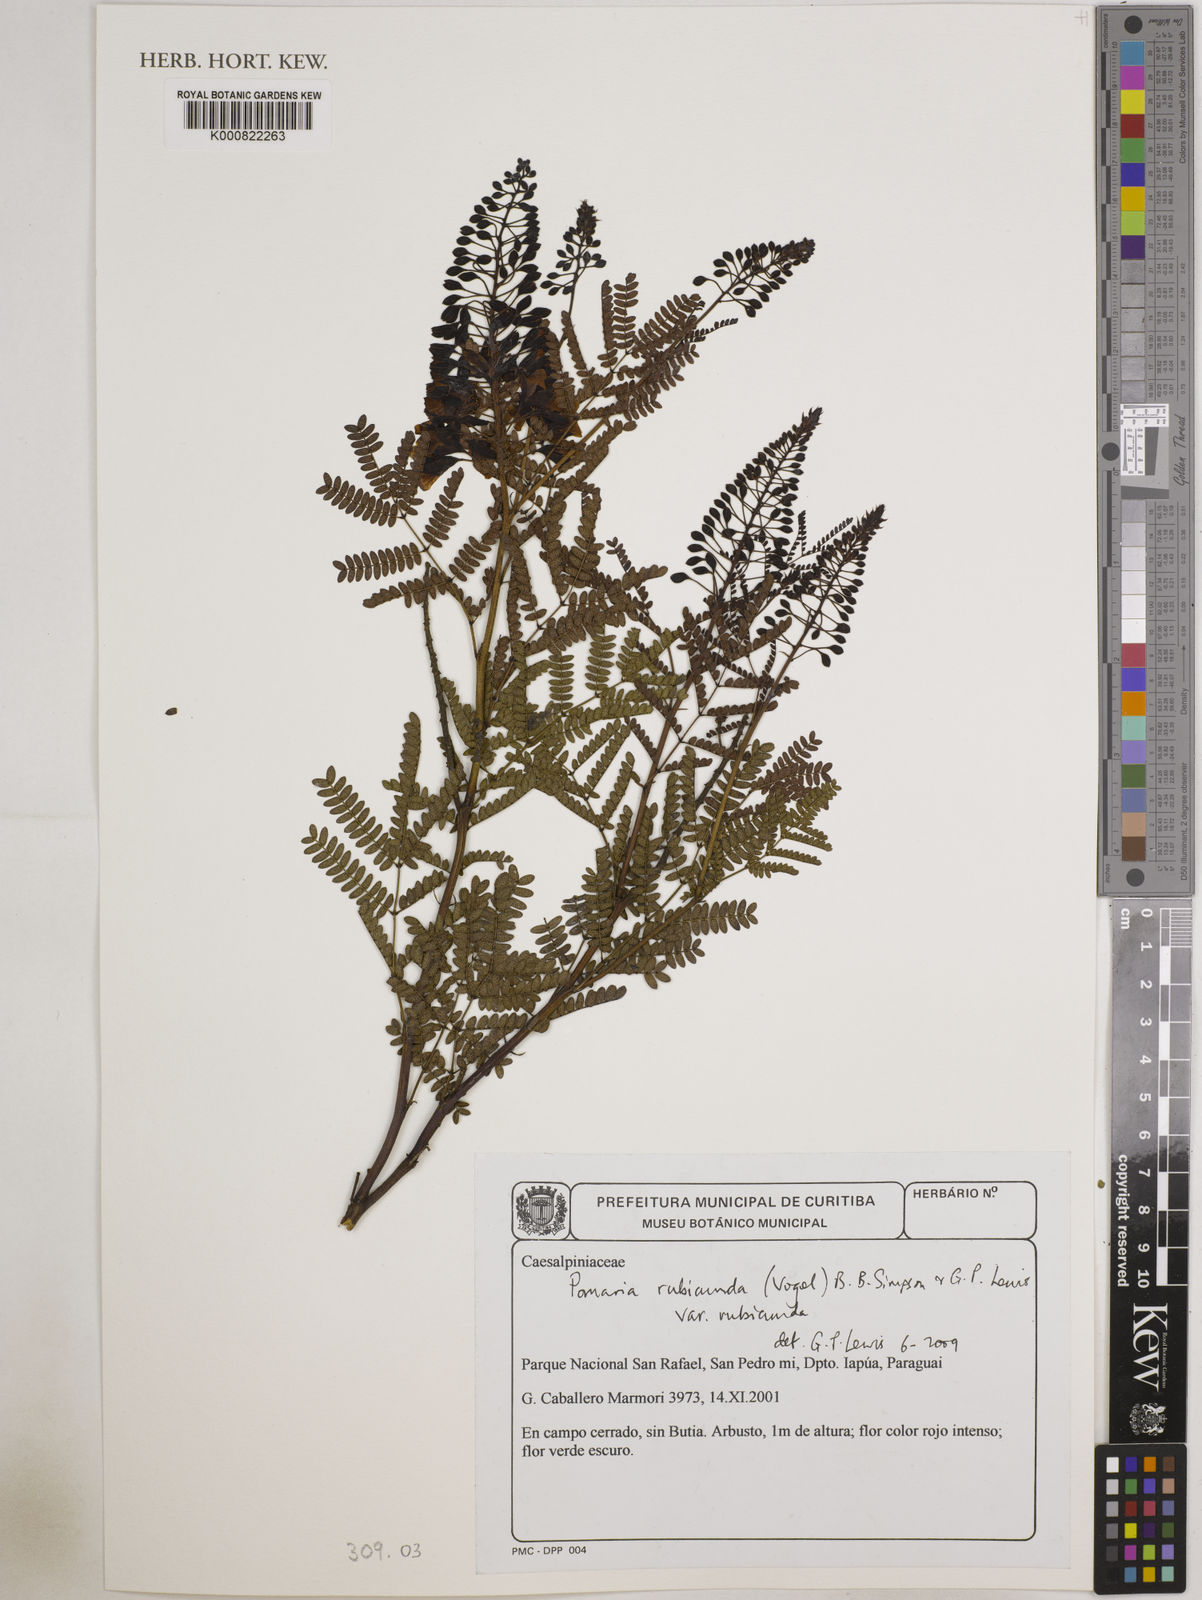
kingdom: Plantae
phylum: Tracheophyta
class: Magnoliopsida
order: Fabales
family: Fabaceae
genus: Pomaria
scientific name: Pomaria rubicunda
